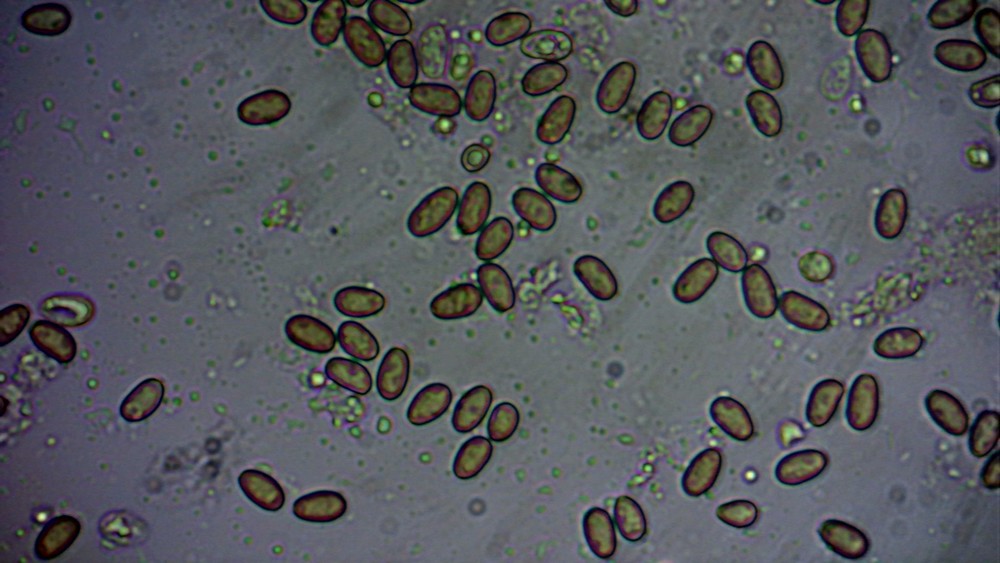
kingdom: Fungi
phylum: Basidiomycota
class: Agaricomycetes
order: Agaricales
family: Hymenogastraceae
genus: Gymnopilus
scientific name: Gymnopilus
